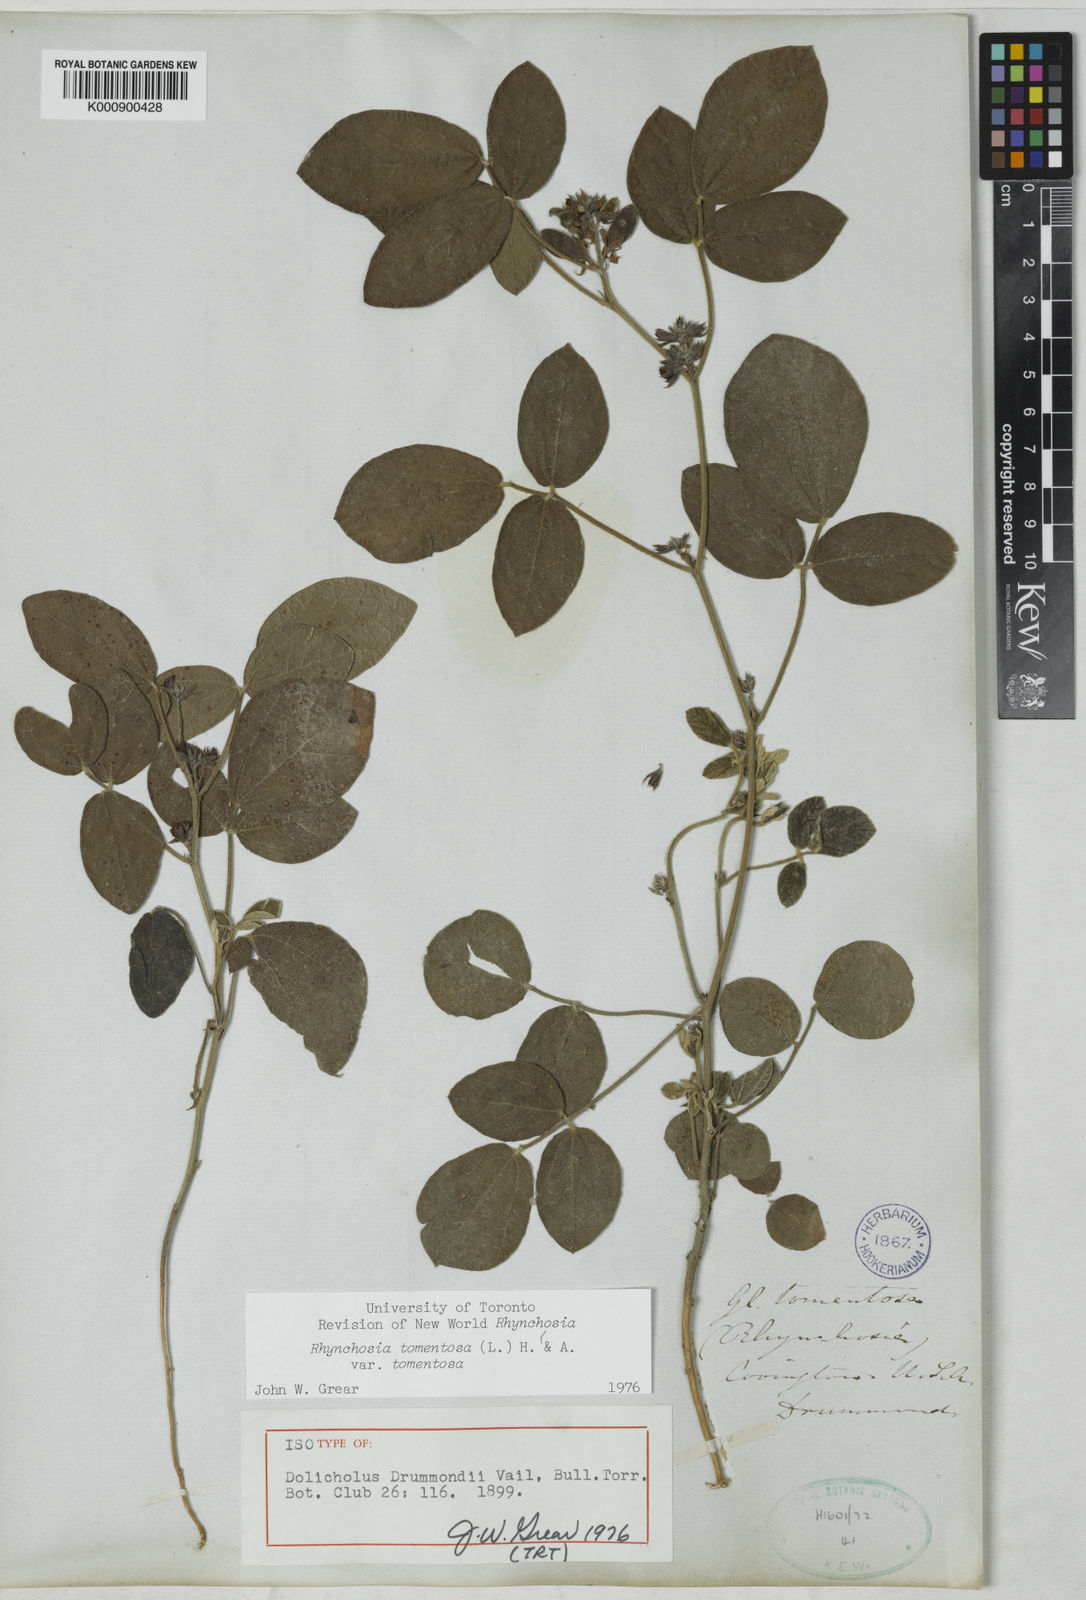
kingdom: Plantae
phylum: Tracheophyta
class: Magnoliopsida
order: Fabales
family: Fabaceae
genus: Rhynchosia
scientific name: Rhynchosia tomentosa
